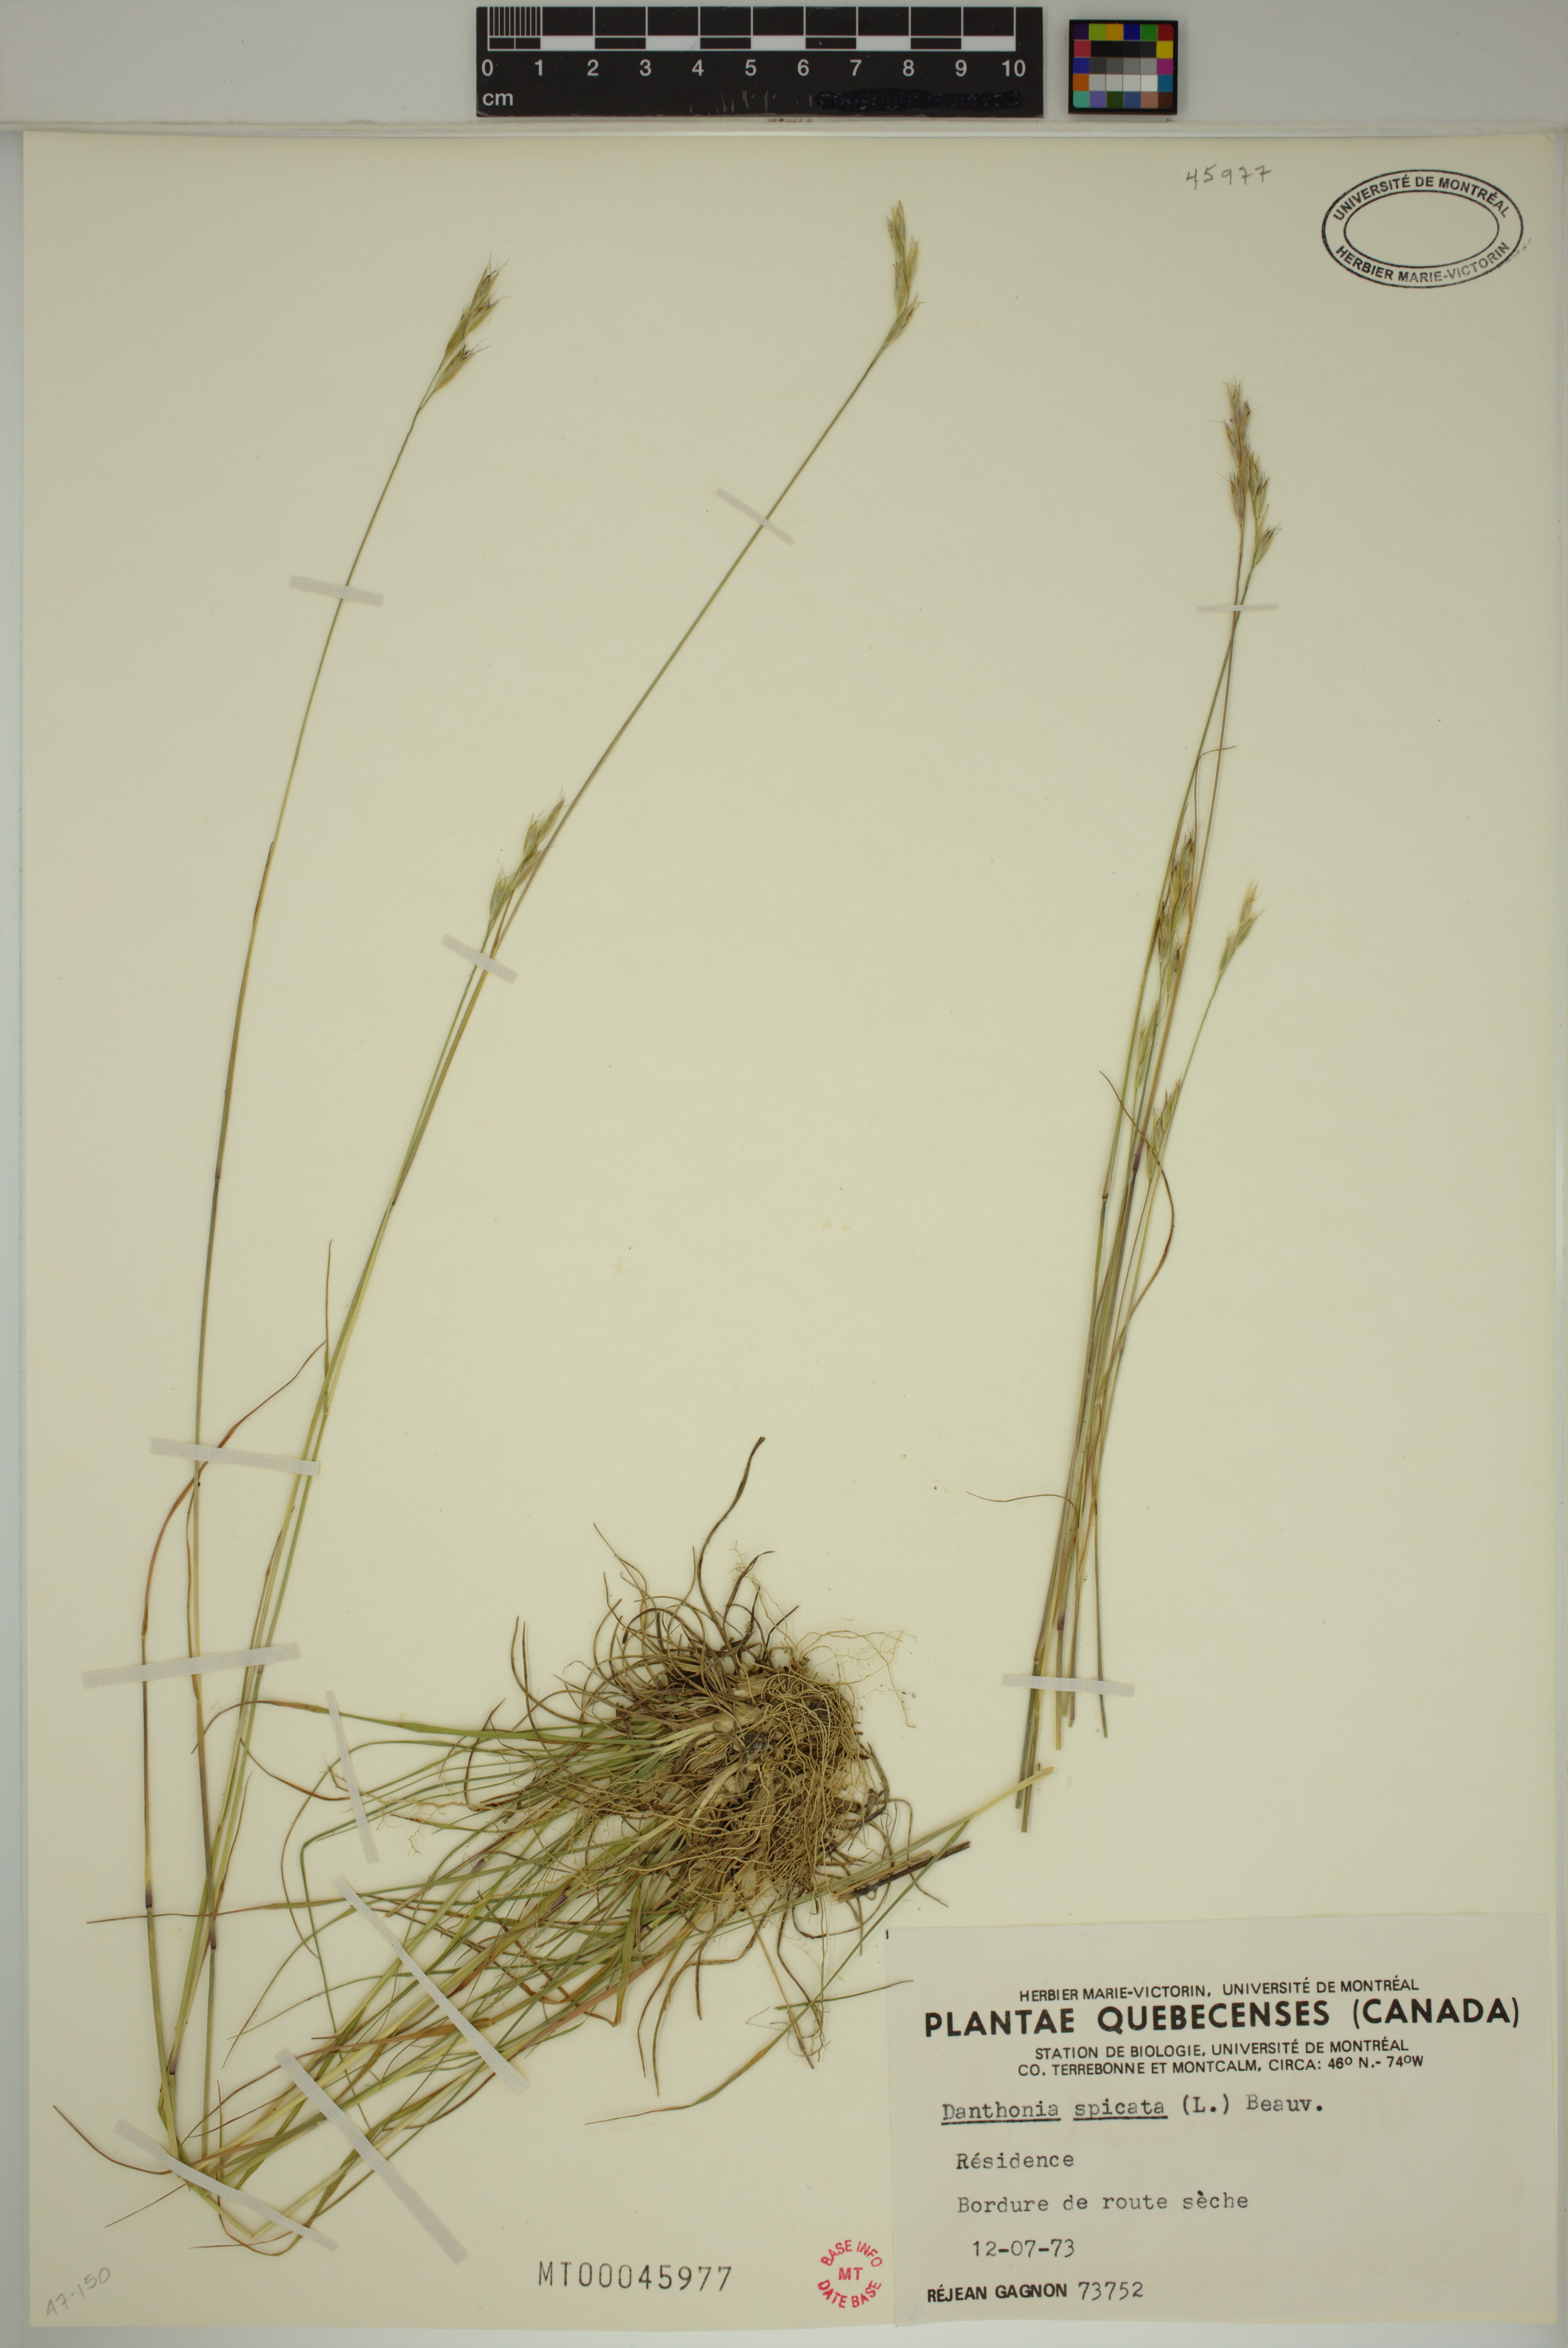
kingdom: Plantae
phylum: Tracheophyta
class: Liliopsida
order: Poales
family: Poaceae
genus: Danthonia
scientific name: Danthonia spicata
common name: Common wild oatgrass
